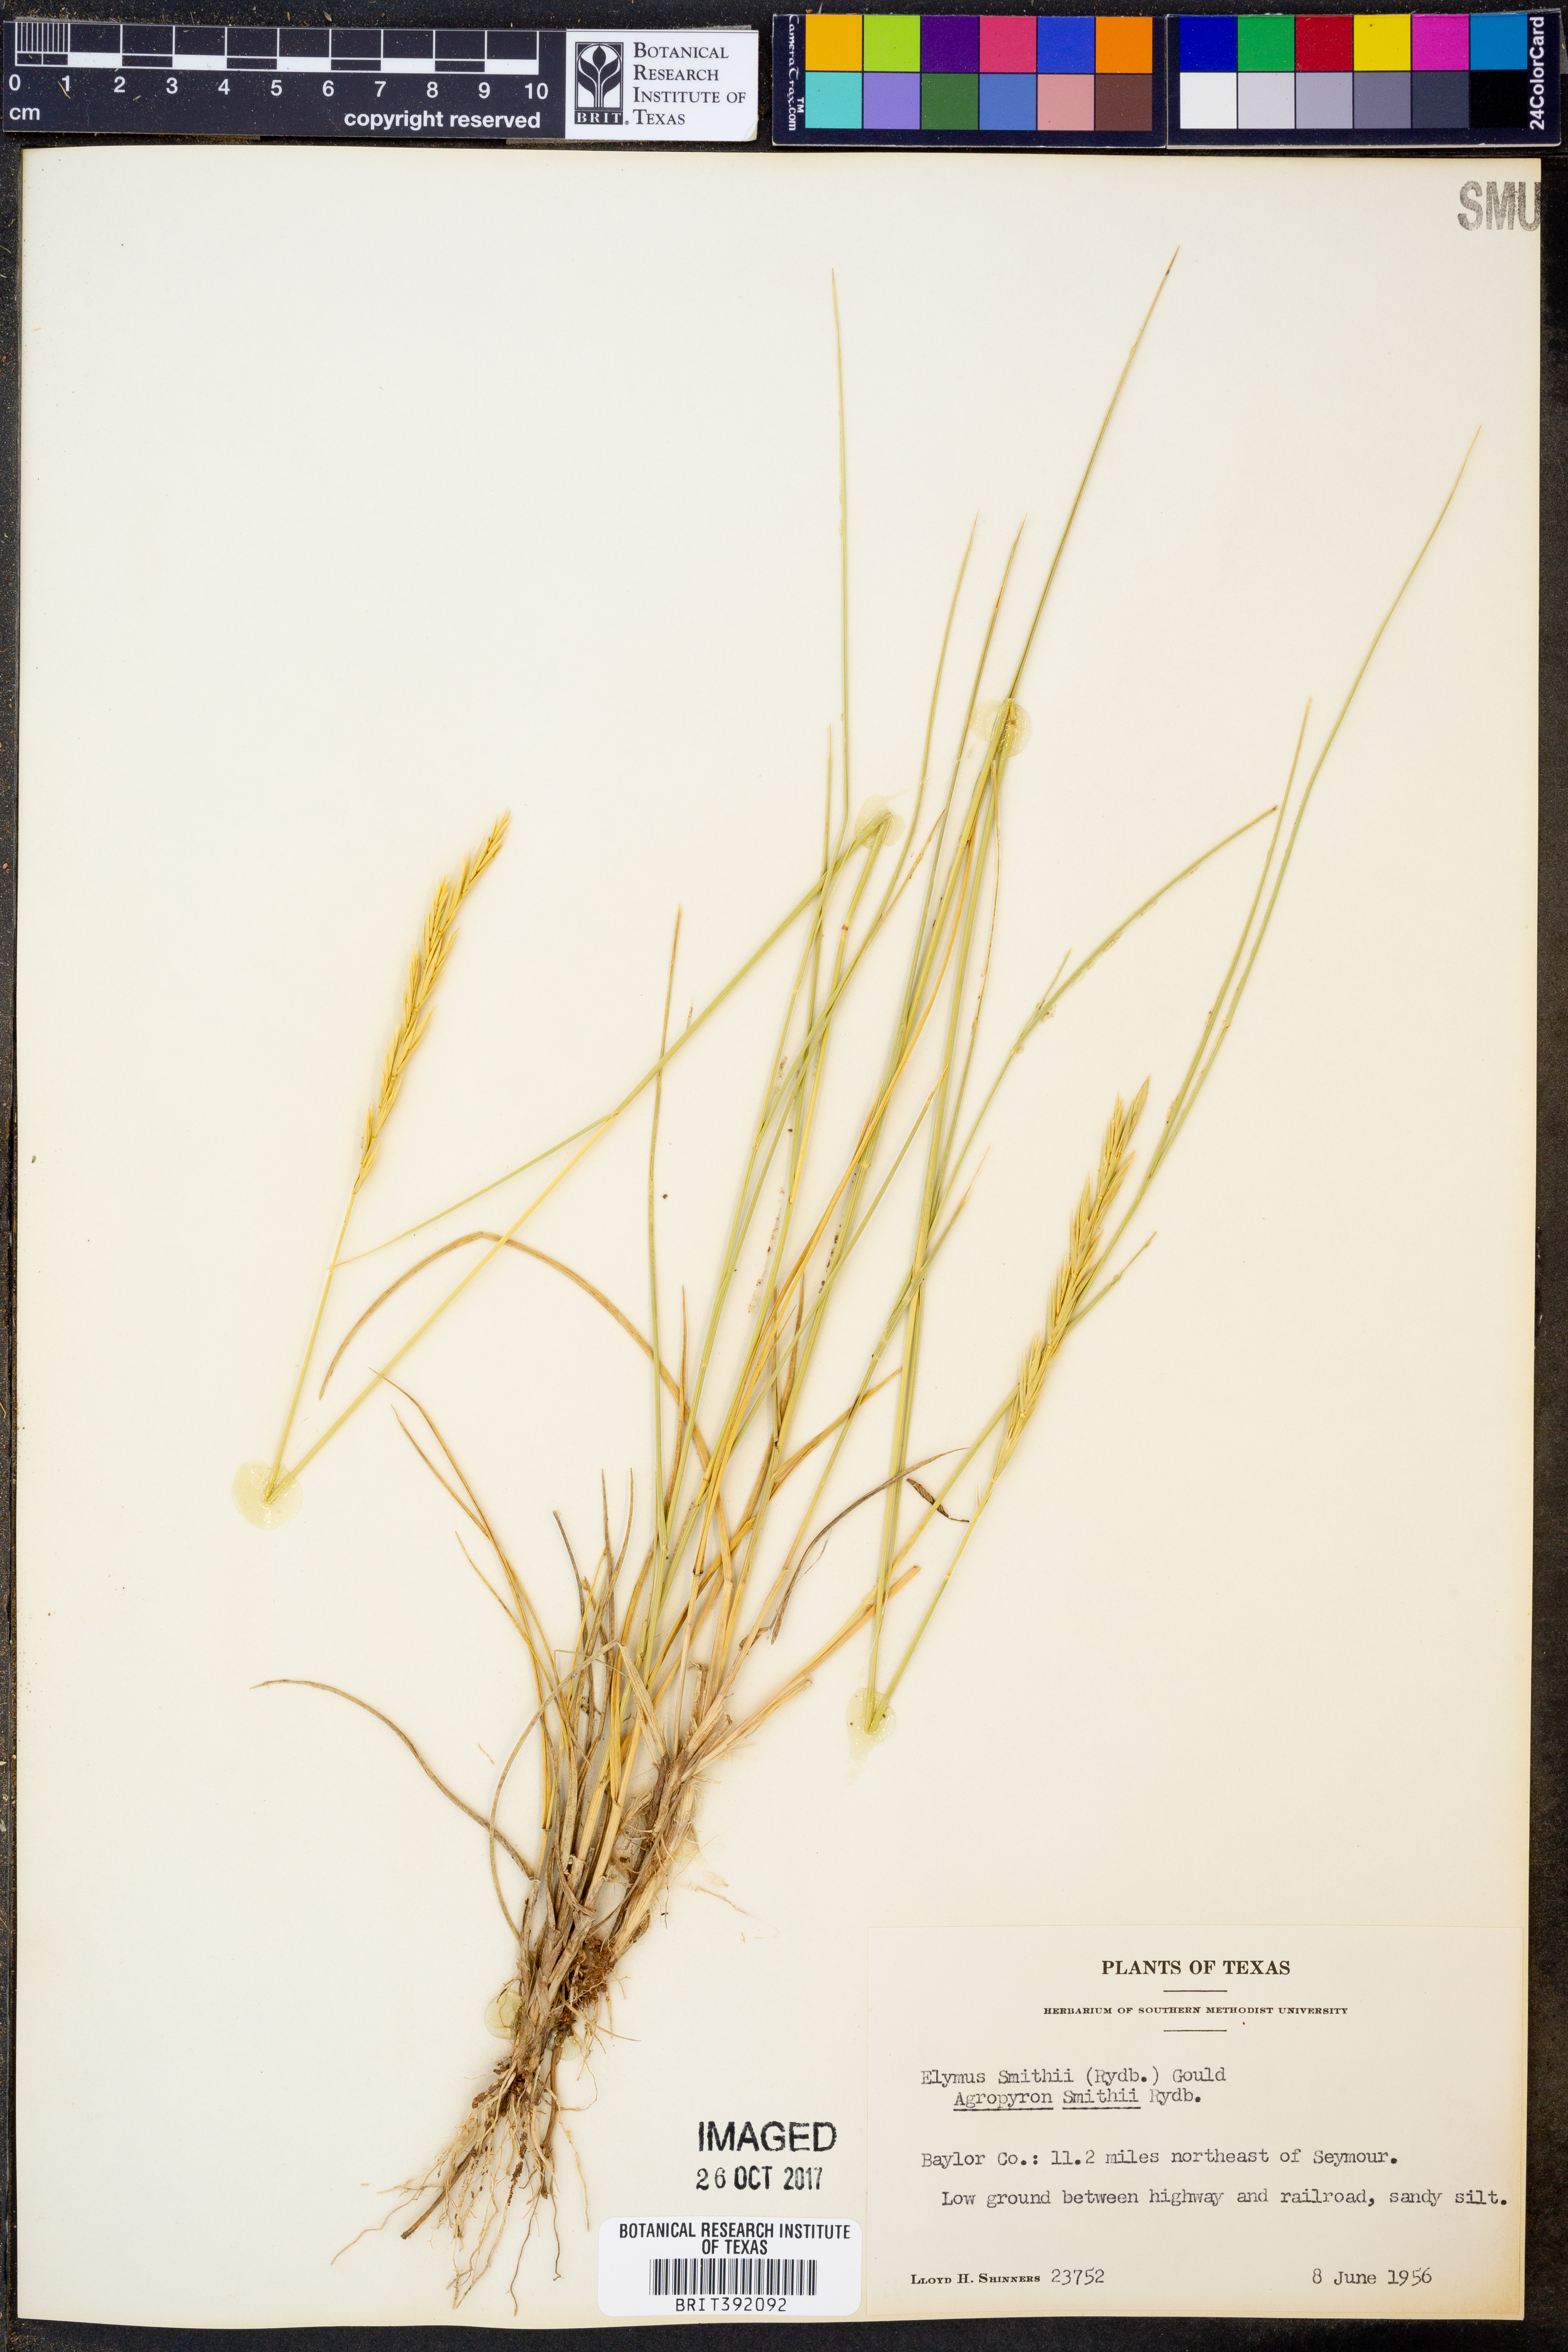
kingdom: Plantae
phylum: Tracheophyta
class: Liliopsida
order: Poales
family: Poaceae
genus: Elymus
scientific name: Elymus smithii
